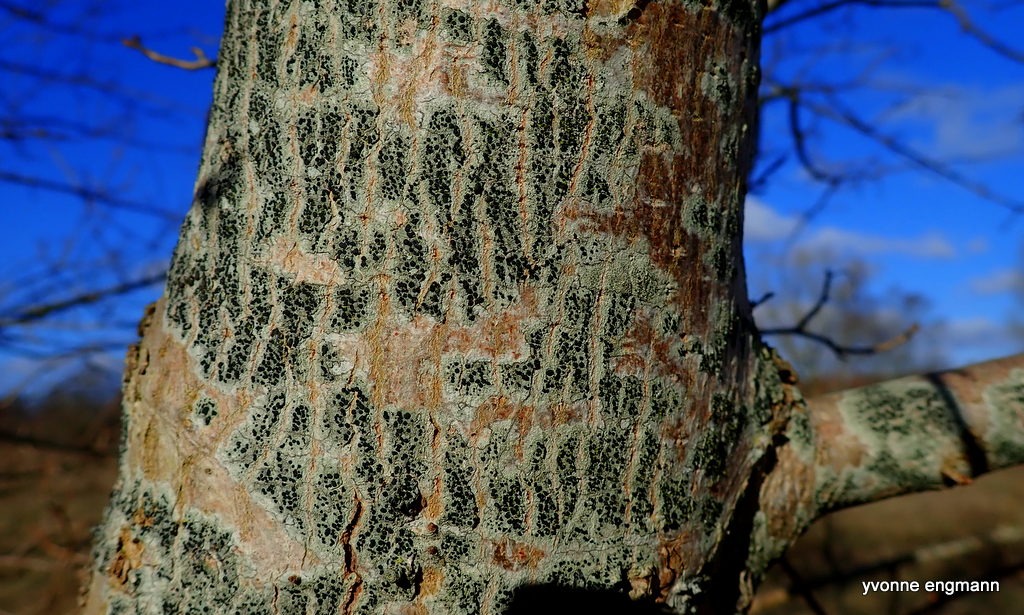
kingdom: Fungi
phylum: Ascomycota
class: Lecanoromycetes
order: Lecanorales
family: Lecanoraceae
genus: Lecidella
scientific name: Lecidella elaeochroma
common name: Grågrøn skivelav
